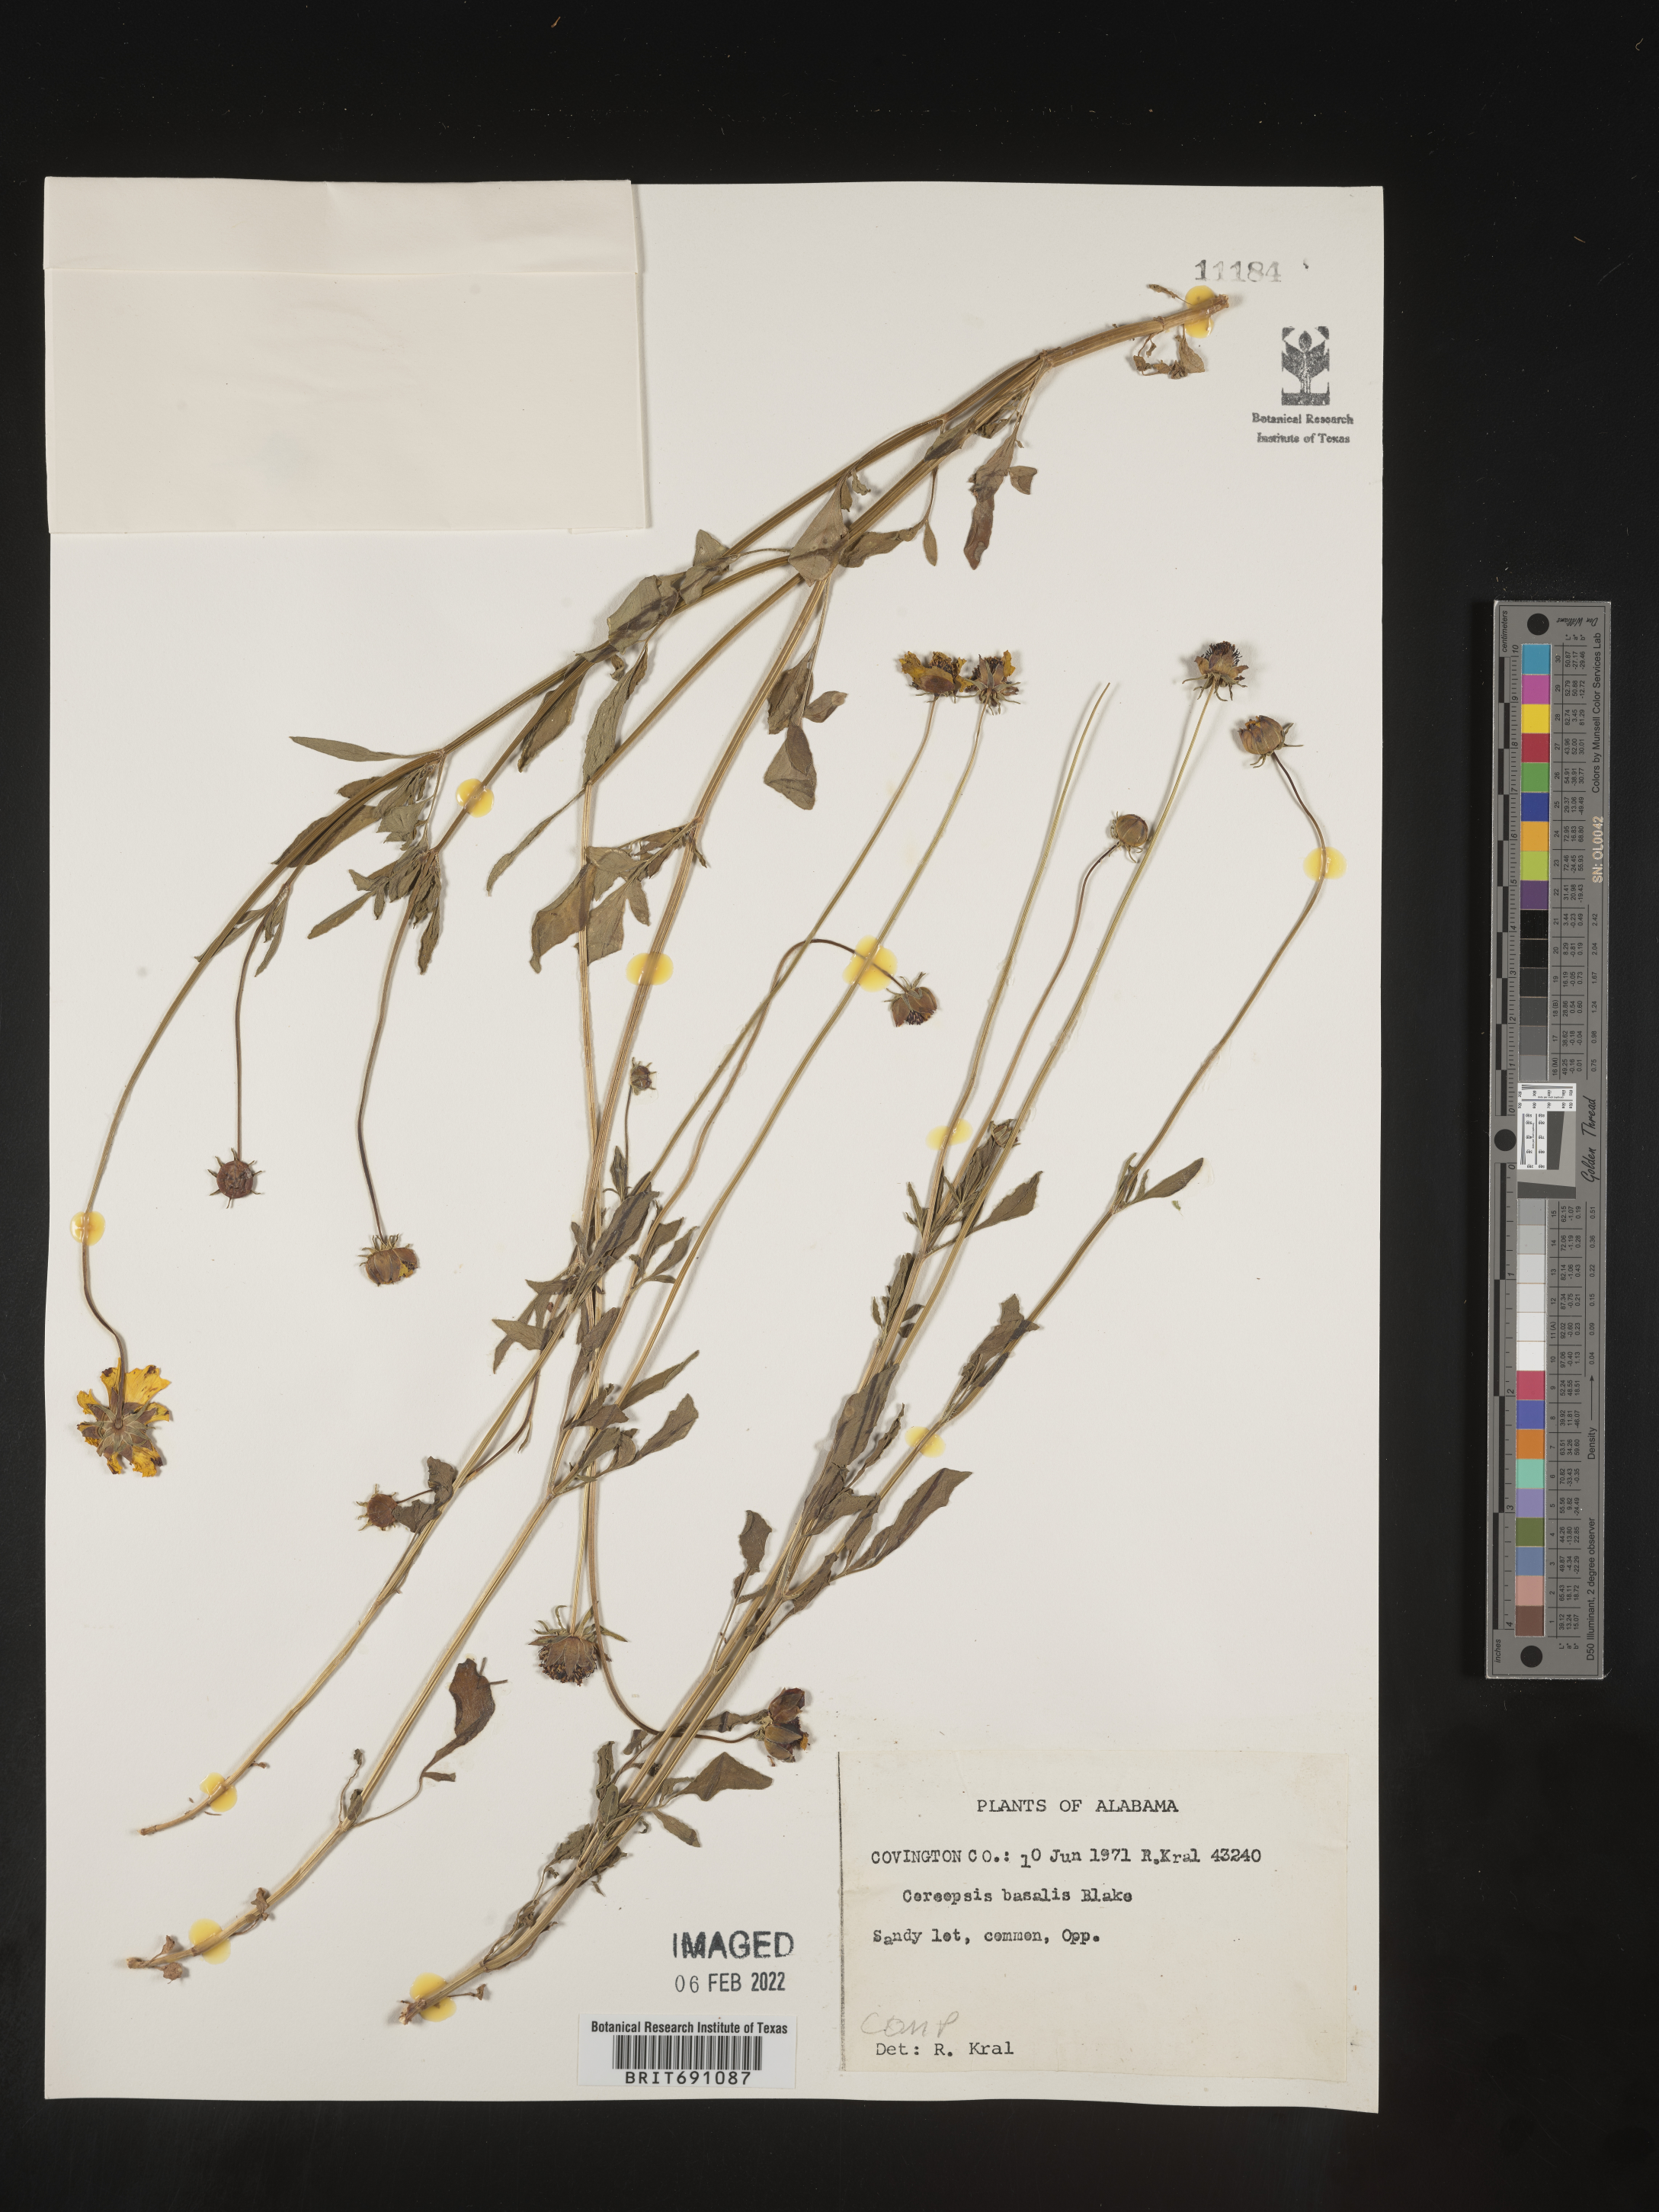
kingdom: Plantae
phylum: Tracheophyta
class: Magnoliopsida
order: Asterales
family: Asteraceae
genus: Coreopsis
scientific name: Coreopsis
